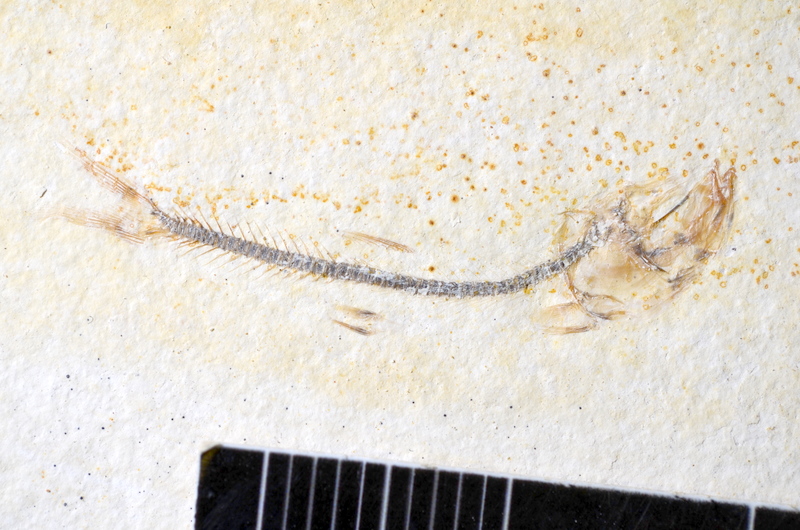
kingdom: Animalia
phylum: Chordata
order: Salmoniformes
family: Orthogonikleithridae
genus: Orthogonikleithrus
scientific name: Orthogonikleithrus hoelli
